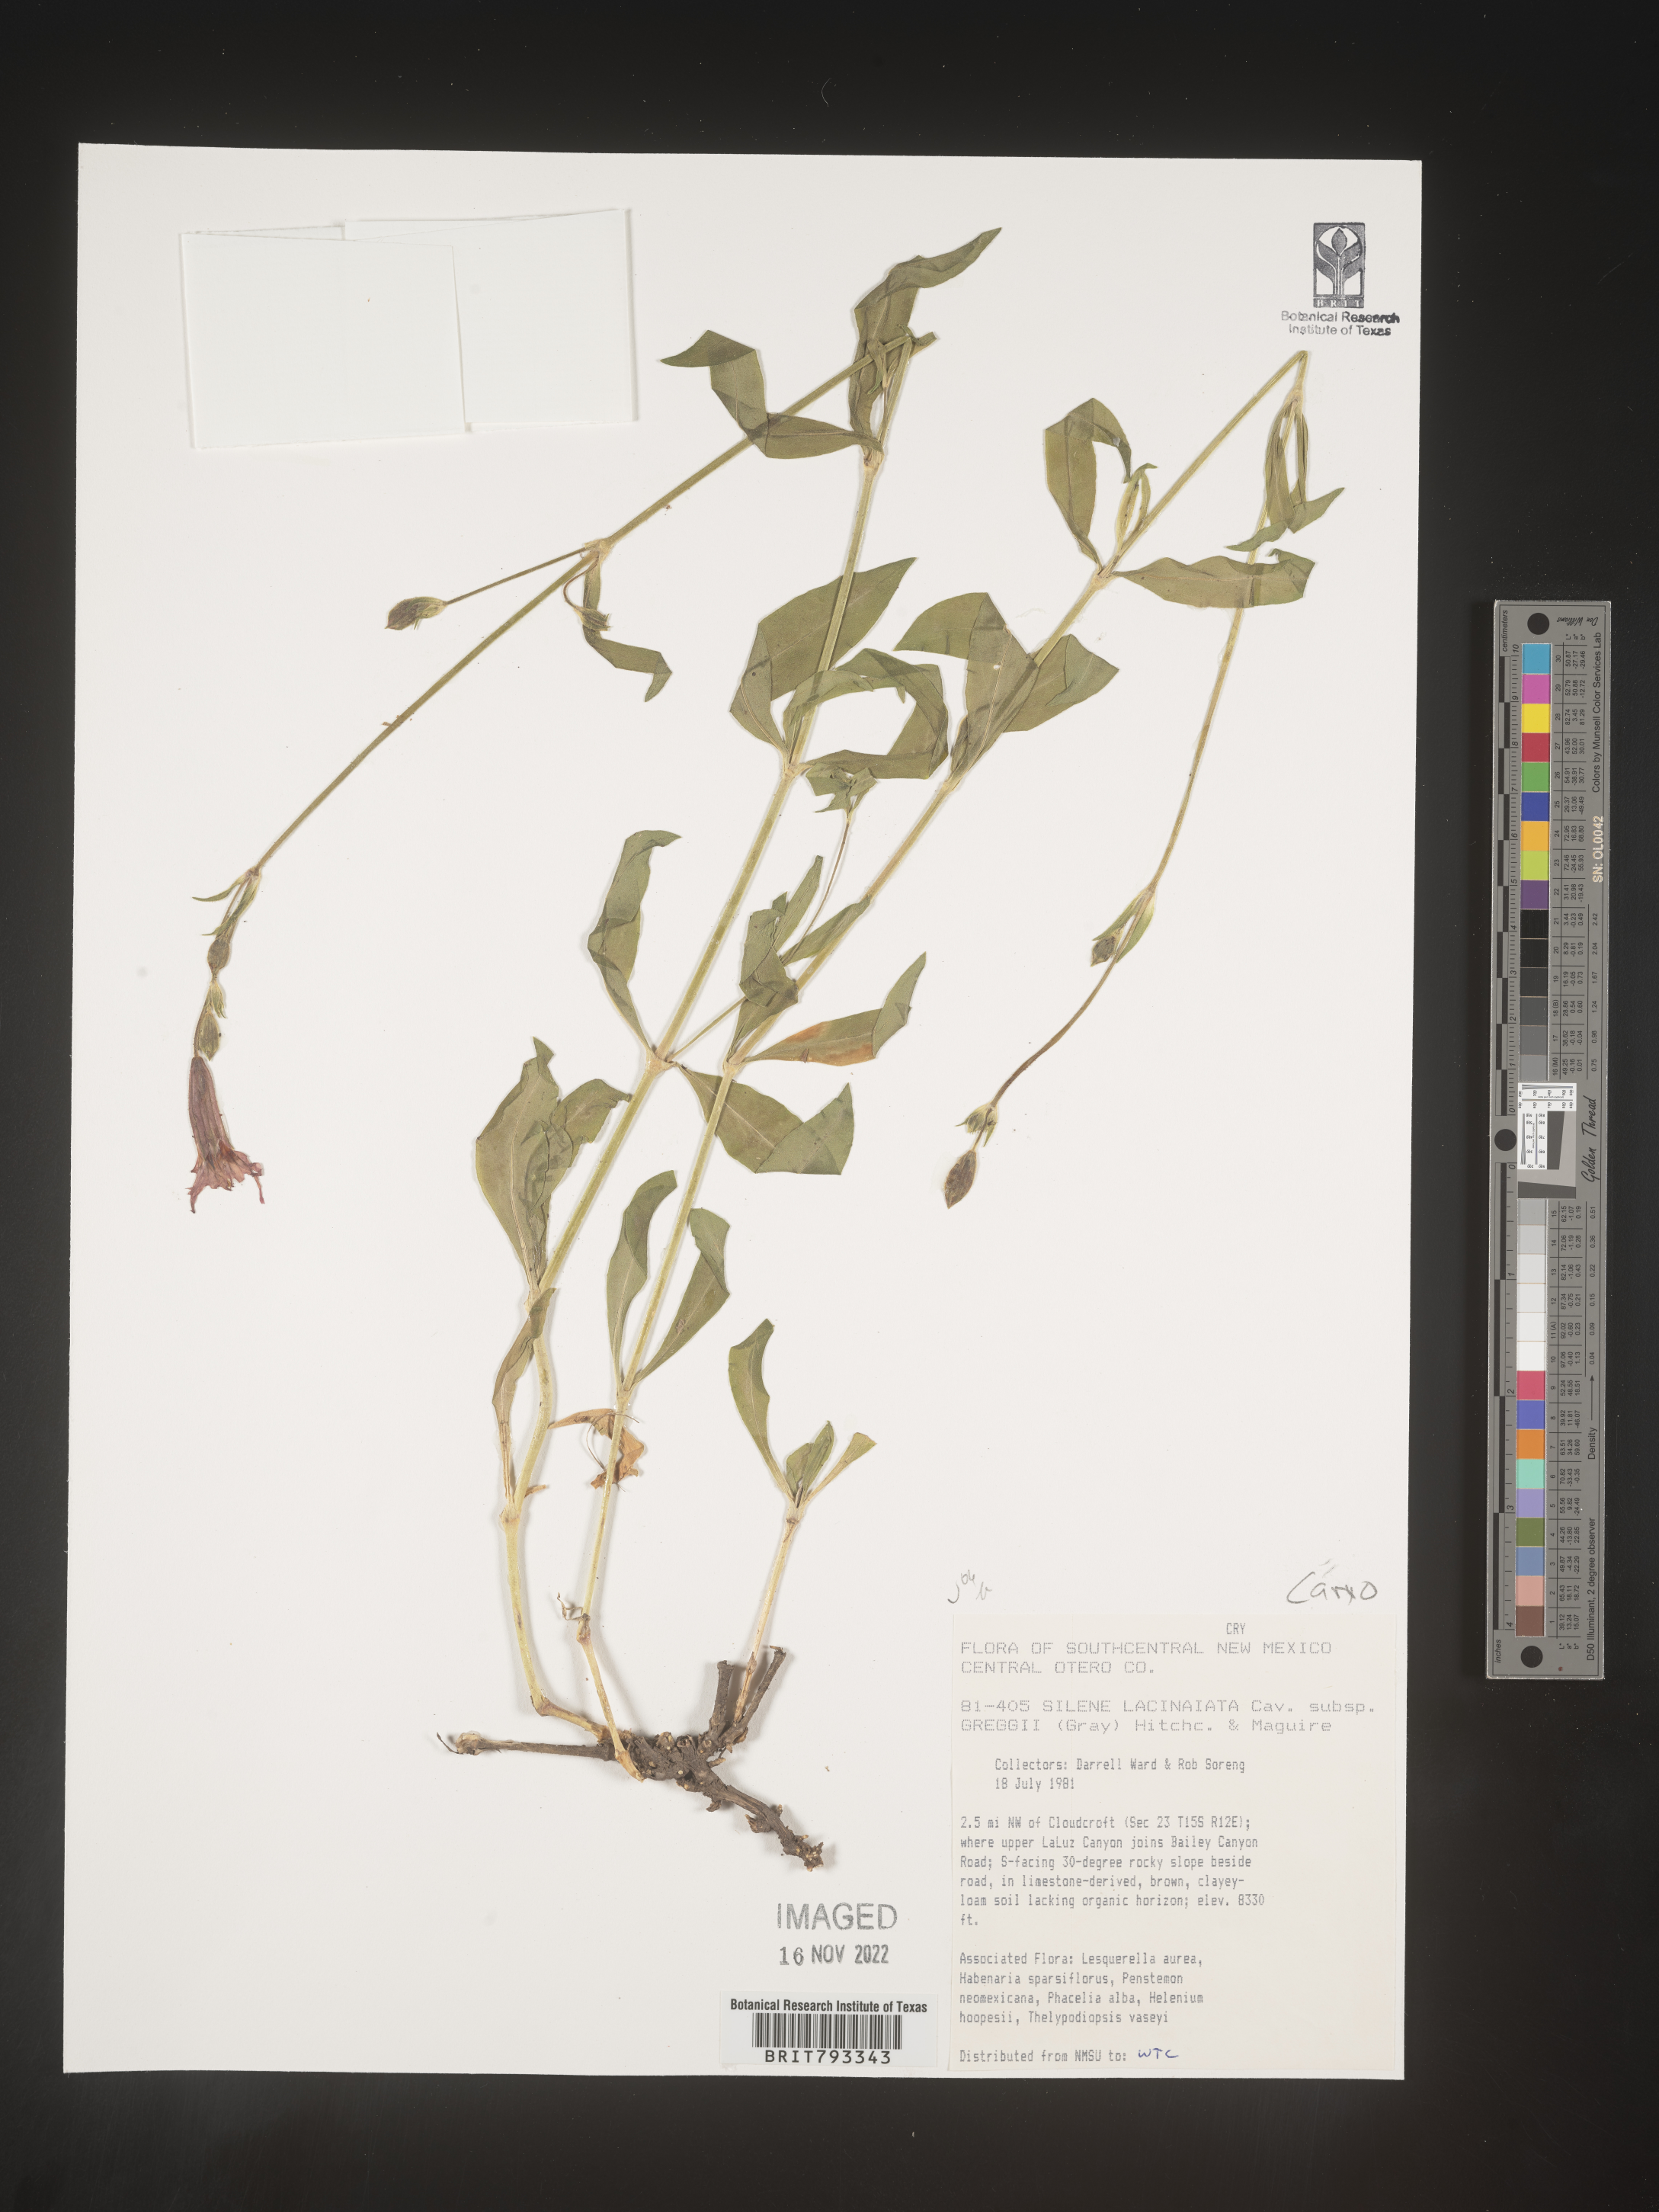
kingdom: Plantae
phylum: Tracheophyta
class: Magnoliopsida
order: Caryophyllales
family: Caryophyllaceae
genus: Silene
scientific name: Silene laciniata
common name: Indian-pink
